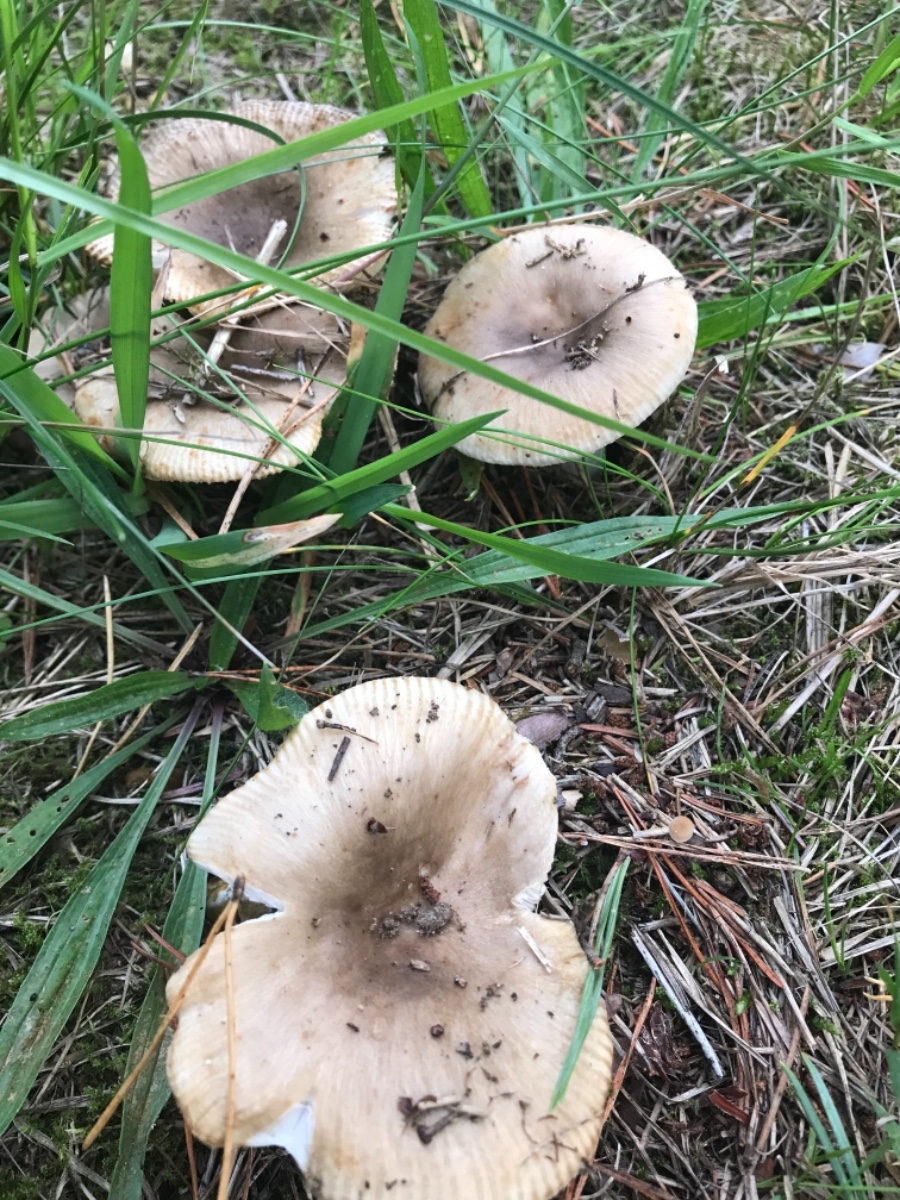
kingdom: Fungi
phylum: Basidiomycota
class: Agaricomycetes
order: Russulales
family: Russulaceae
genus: Russula
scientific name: Russula recondita
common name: mild kam-skørhat
